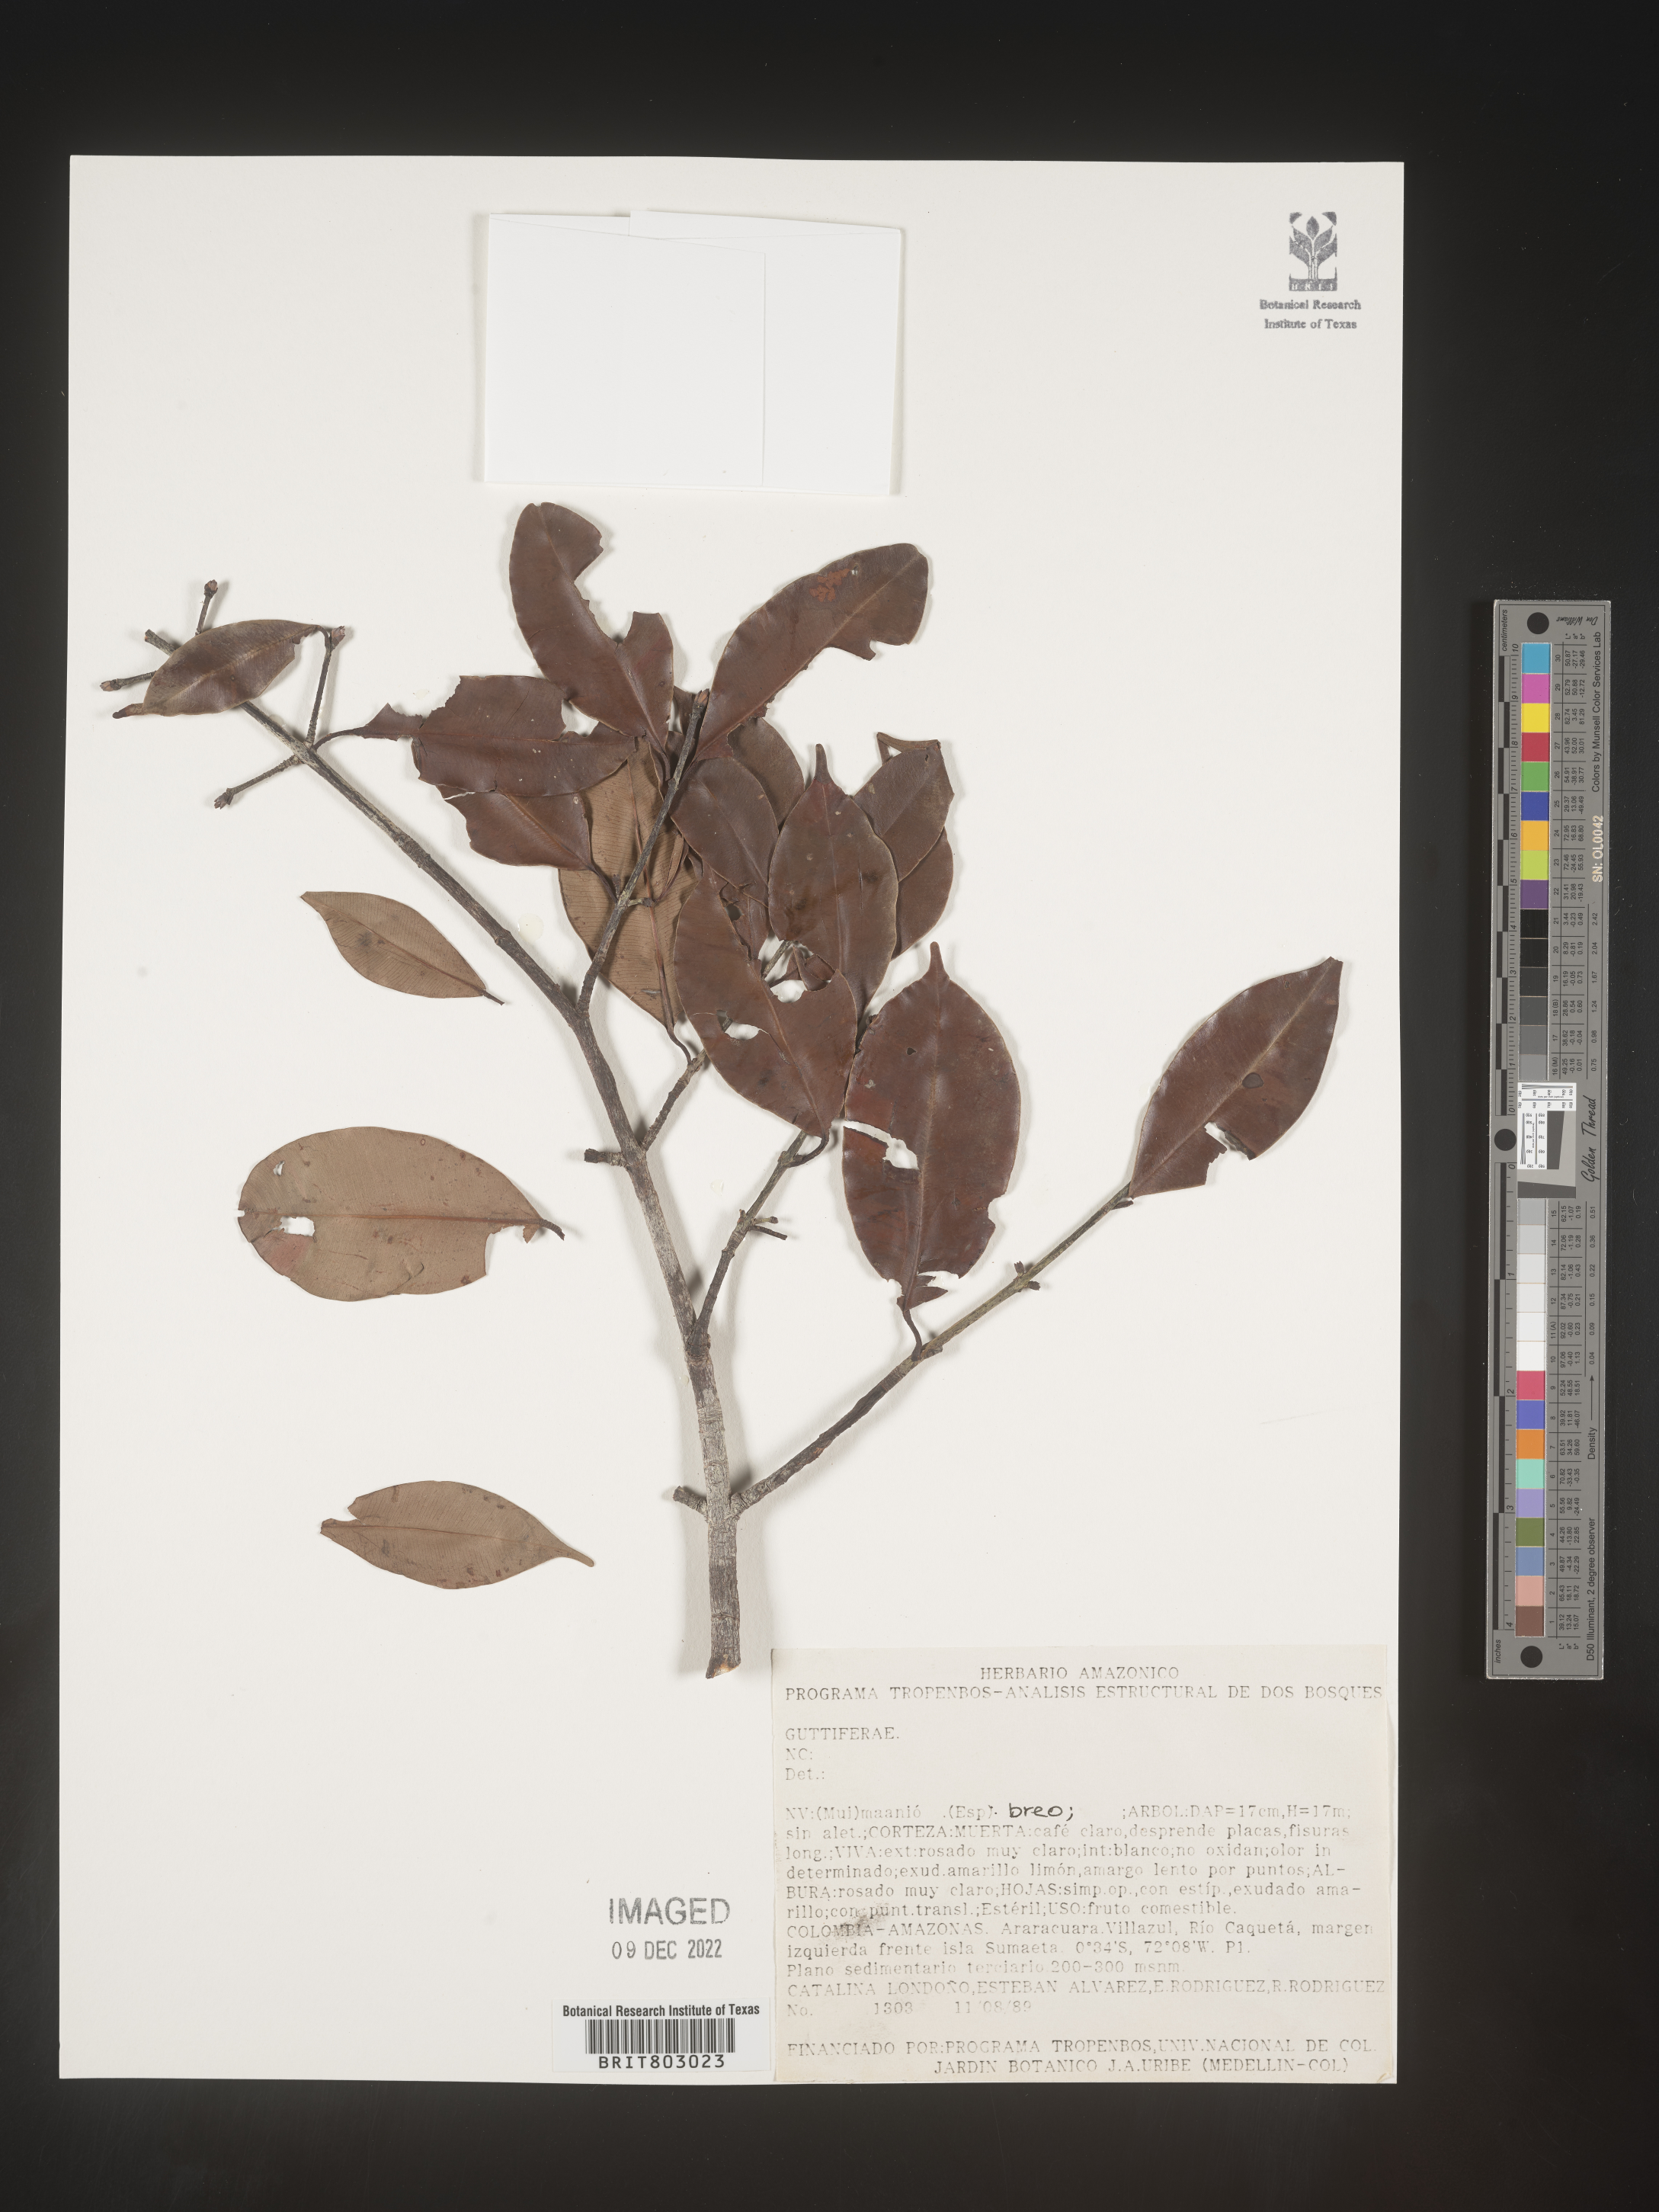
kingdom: Plantae
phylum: Tracheophyta
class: Magnoliopsida
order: Malpighiales
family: Clusiaceae
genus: Moronobea
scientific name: Moronobea
